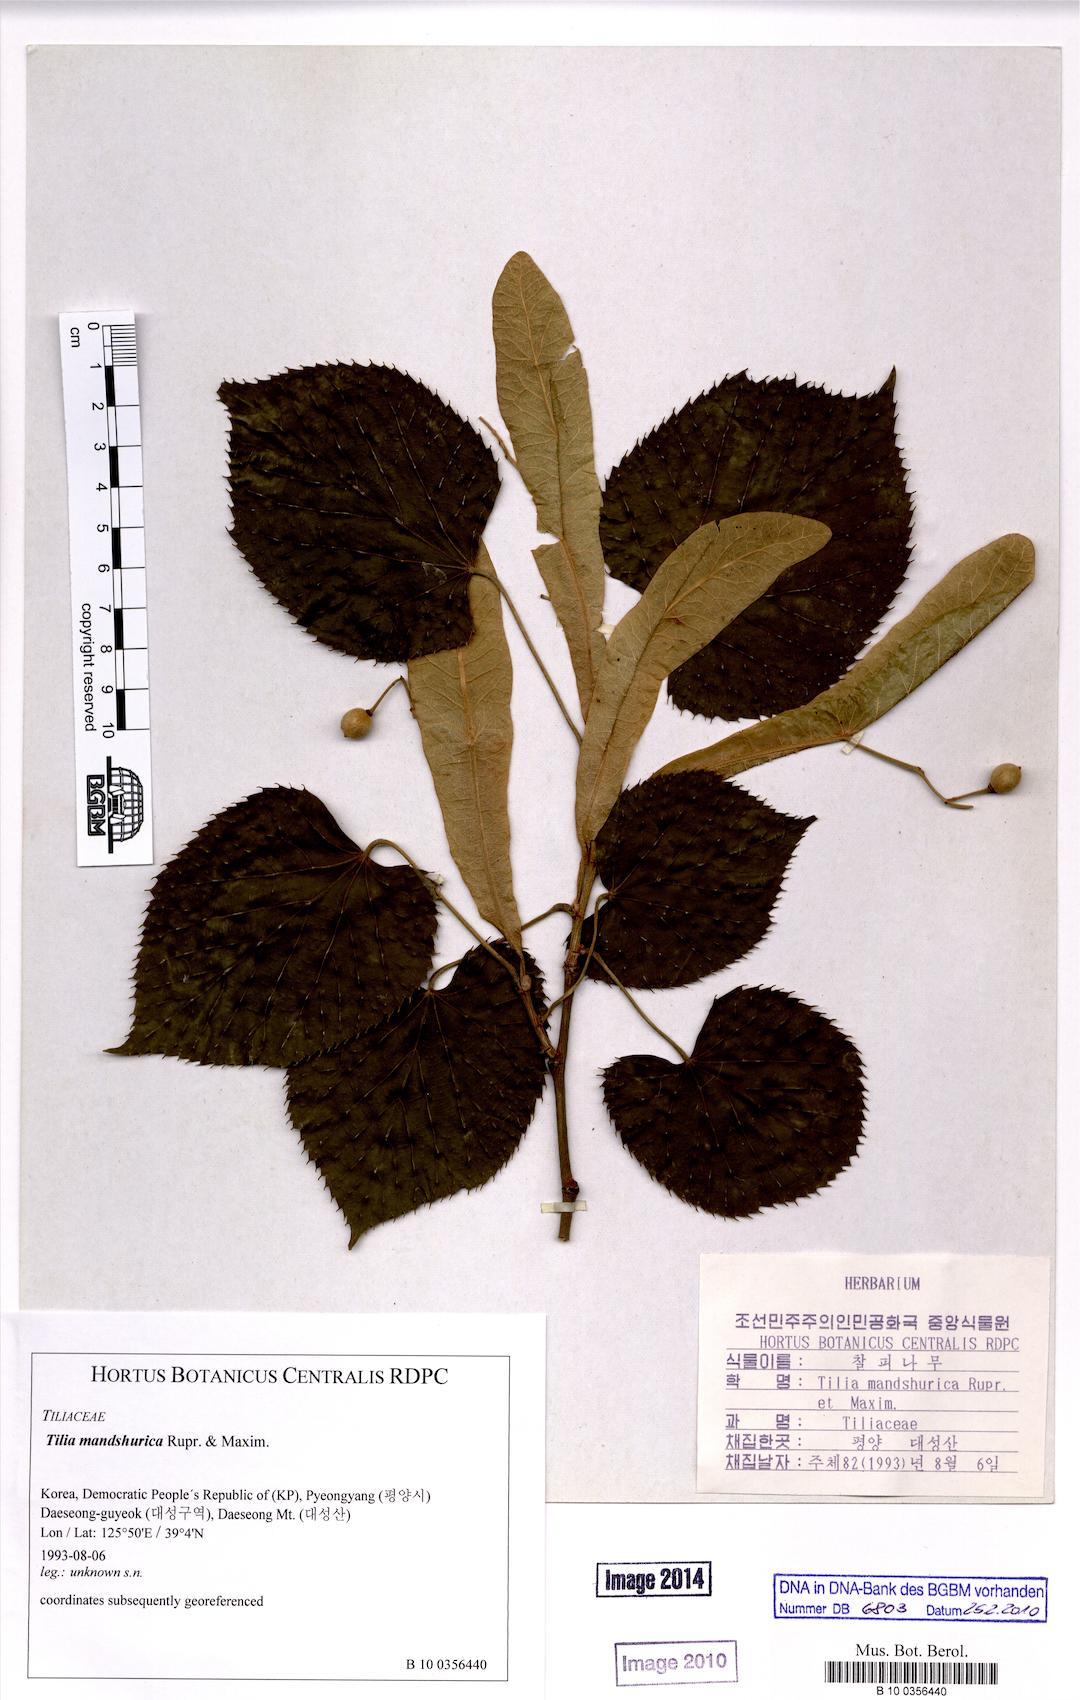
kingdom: Plantae
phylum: Tracheophyta
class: Magnoliopsida
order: Malvales
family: Malvaceae
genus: Tilia
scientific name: Tilia mandshurica
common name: Manchurian linden
